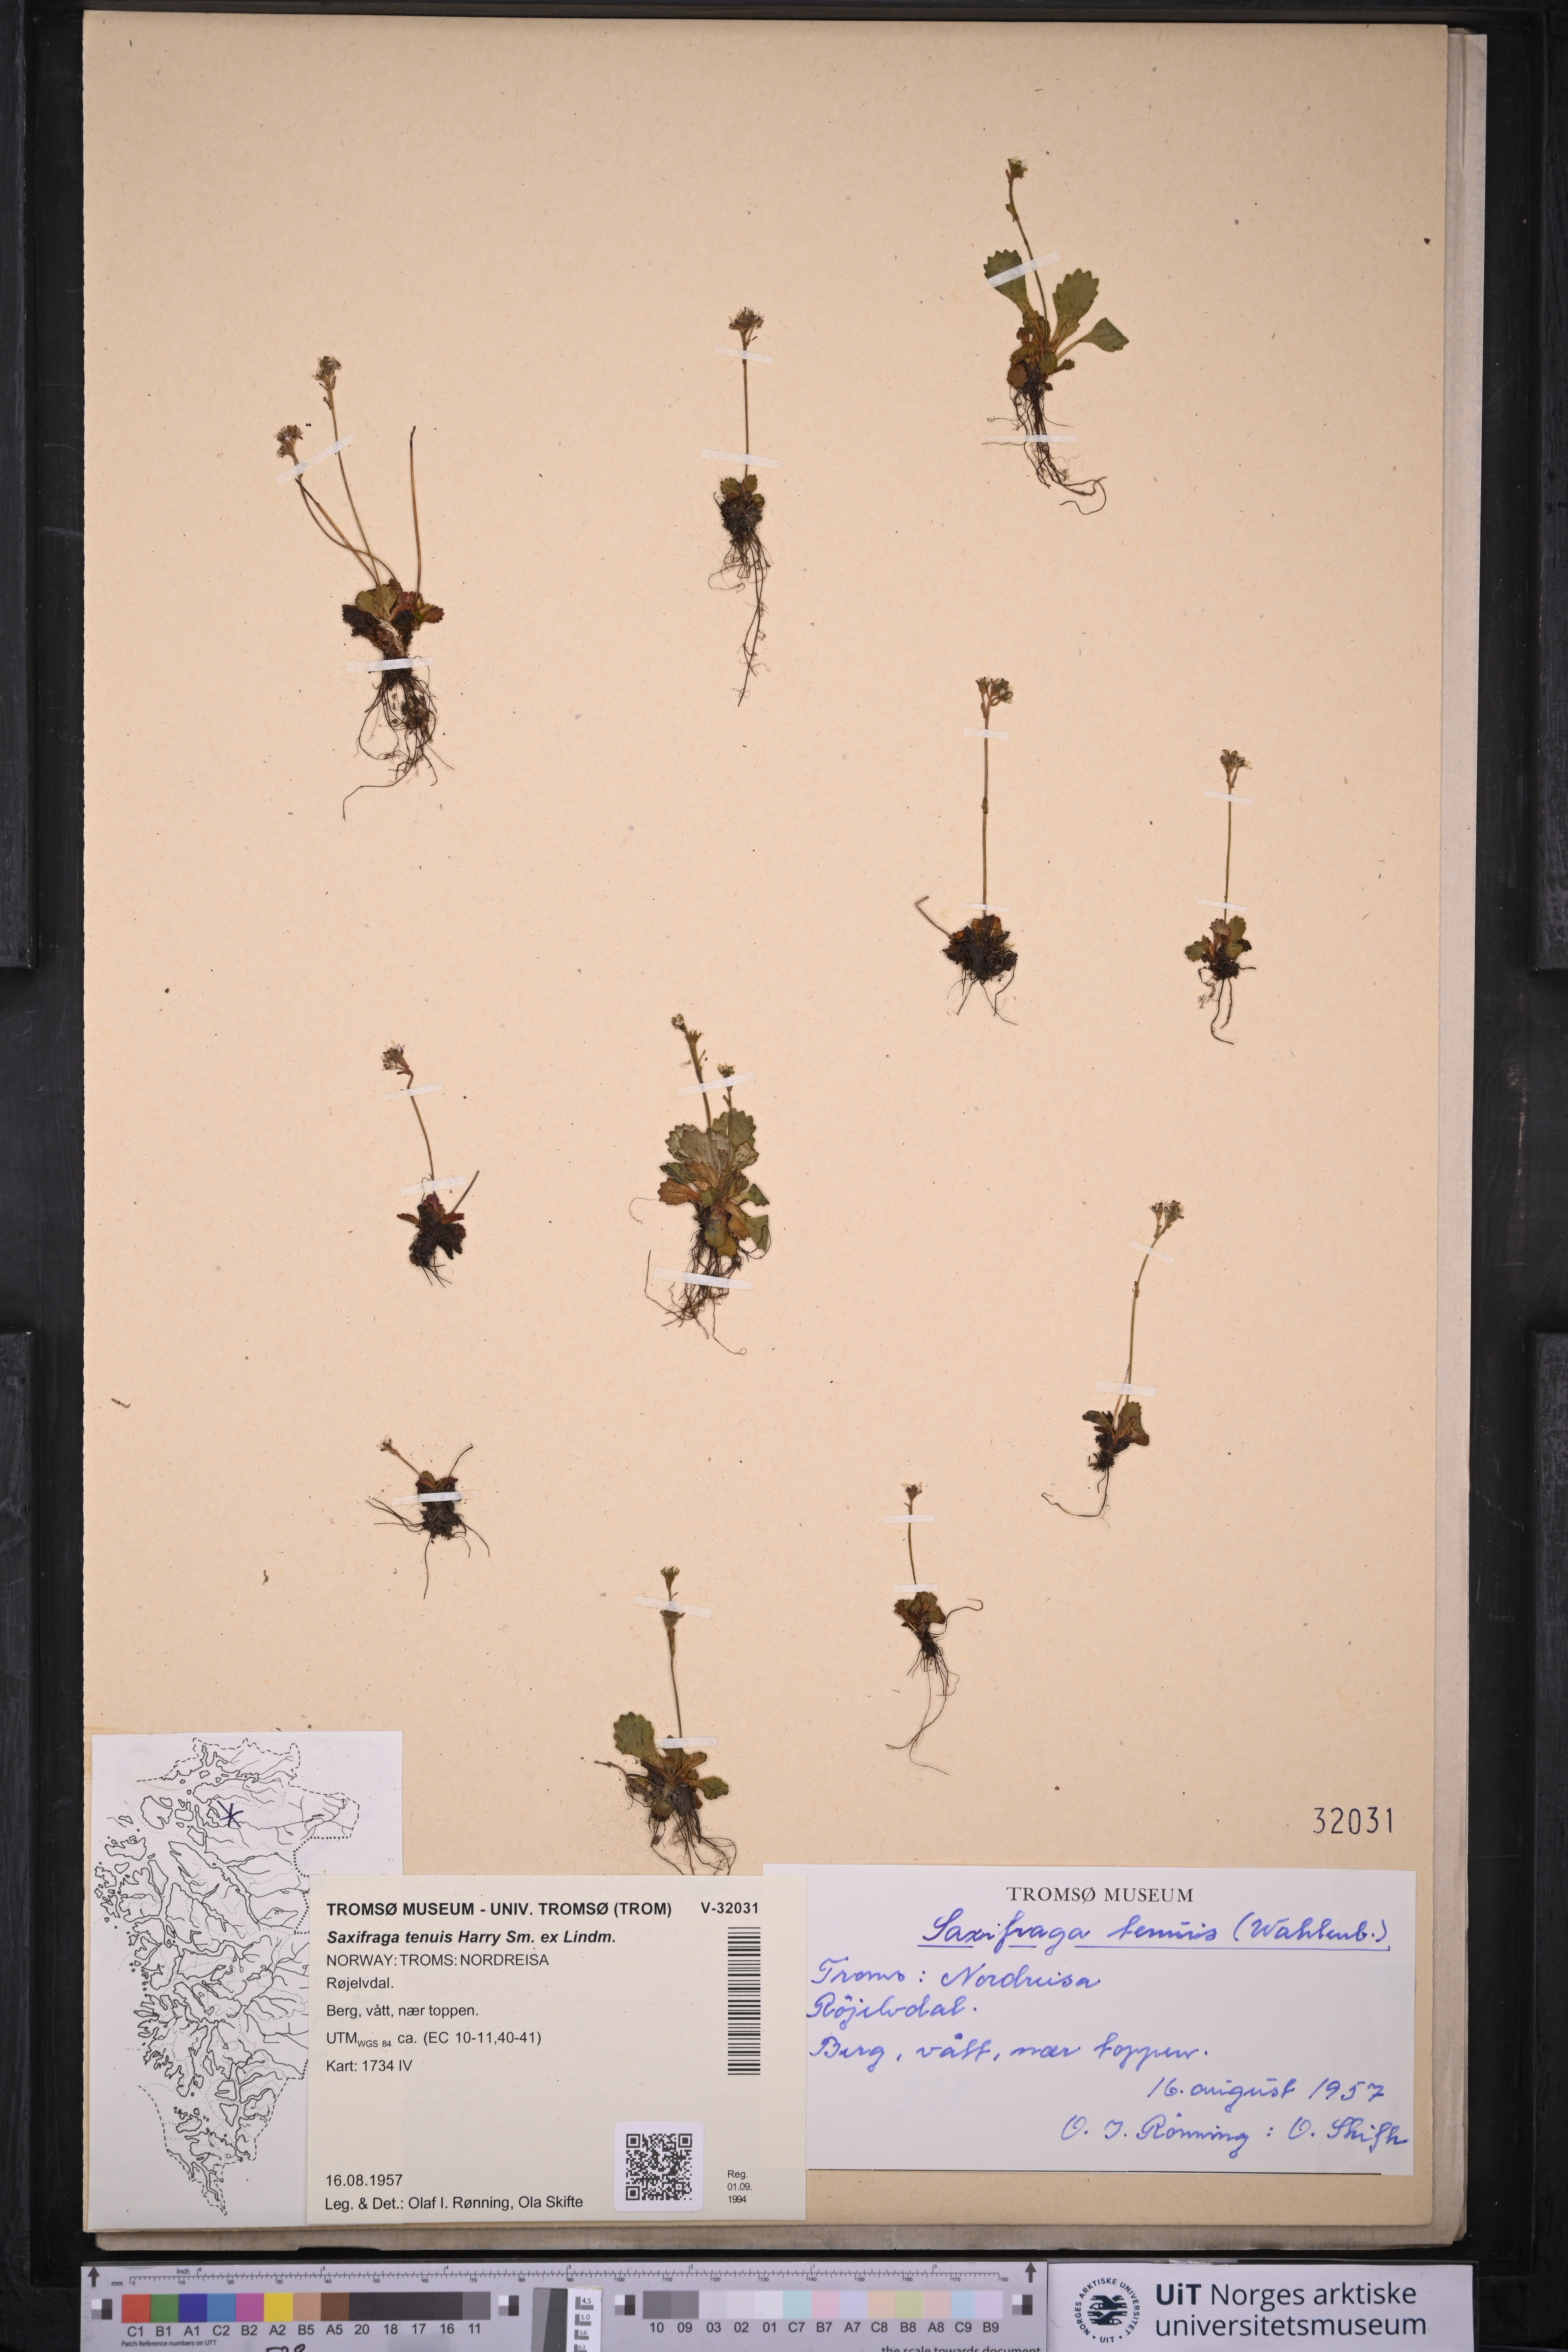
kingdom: Plantae
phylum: Tracheophyta
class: Magnoliopsida
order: Saxifragales
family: Saxifragaceae
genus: Micranthes
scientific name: Micranthes tenuis
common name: Ottertail pass saxifrage
